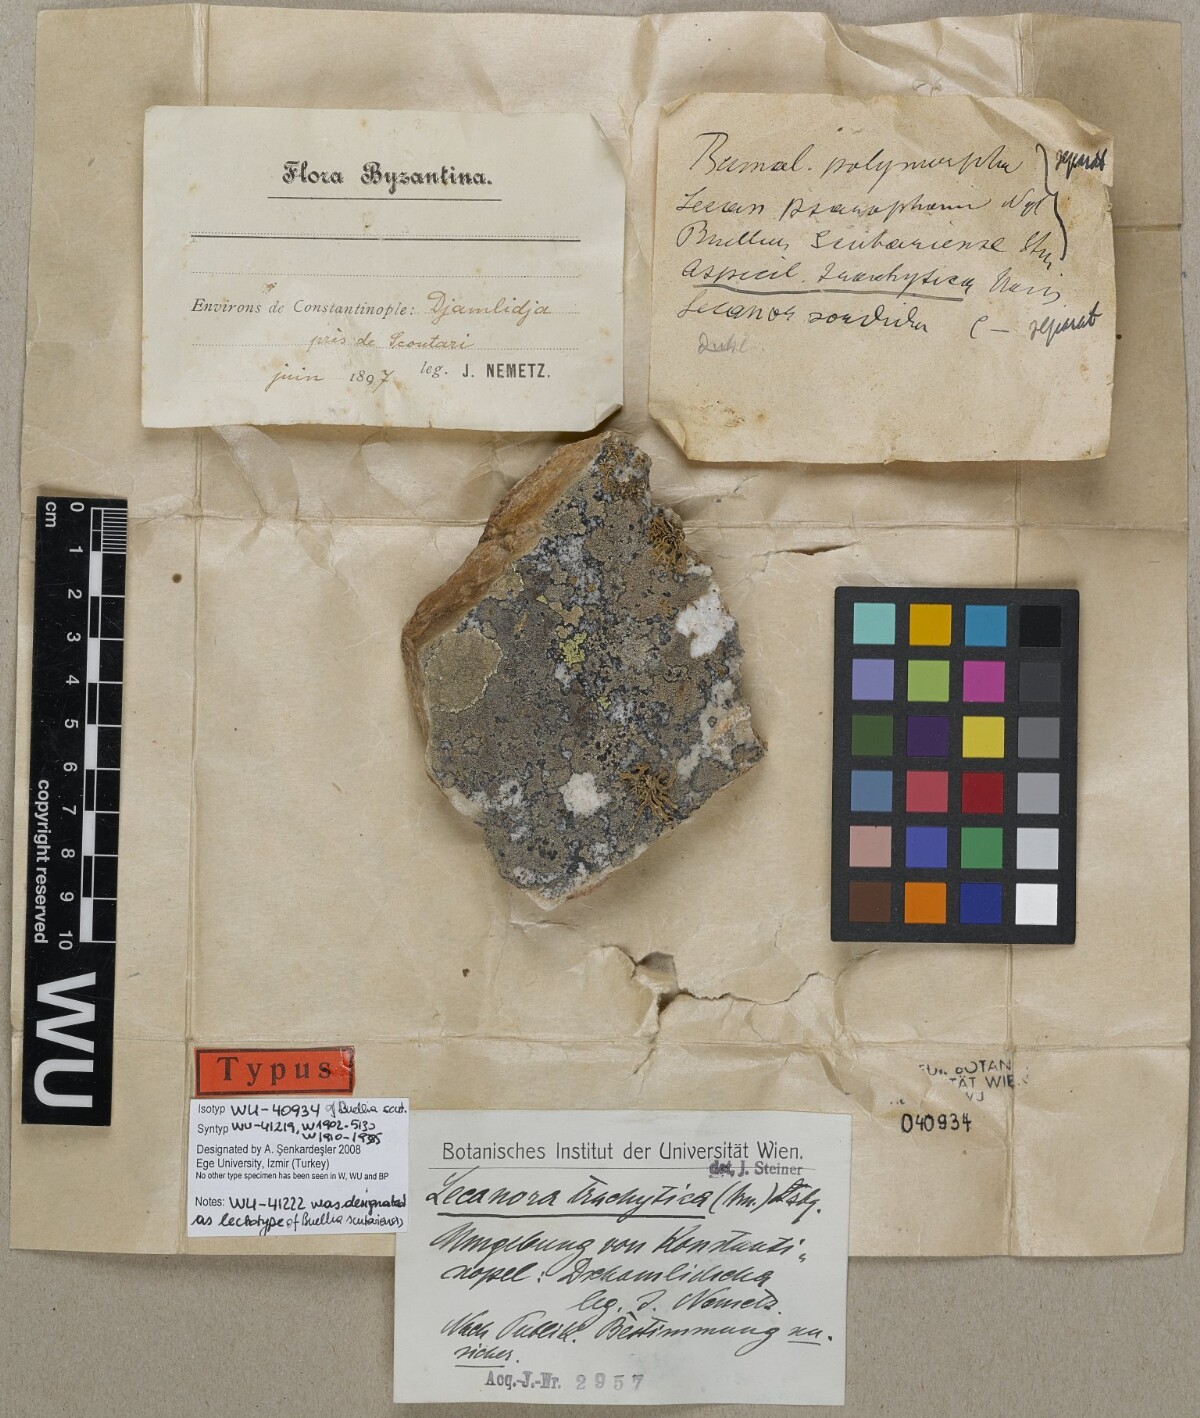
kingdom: Fungi
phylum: Ascomycota
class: Lecanoromycetes
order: Caliciales
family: Physciaceae
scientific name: Physciaceae
